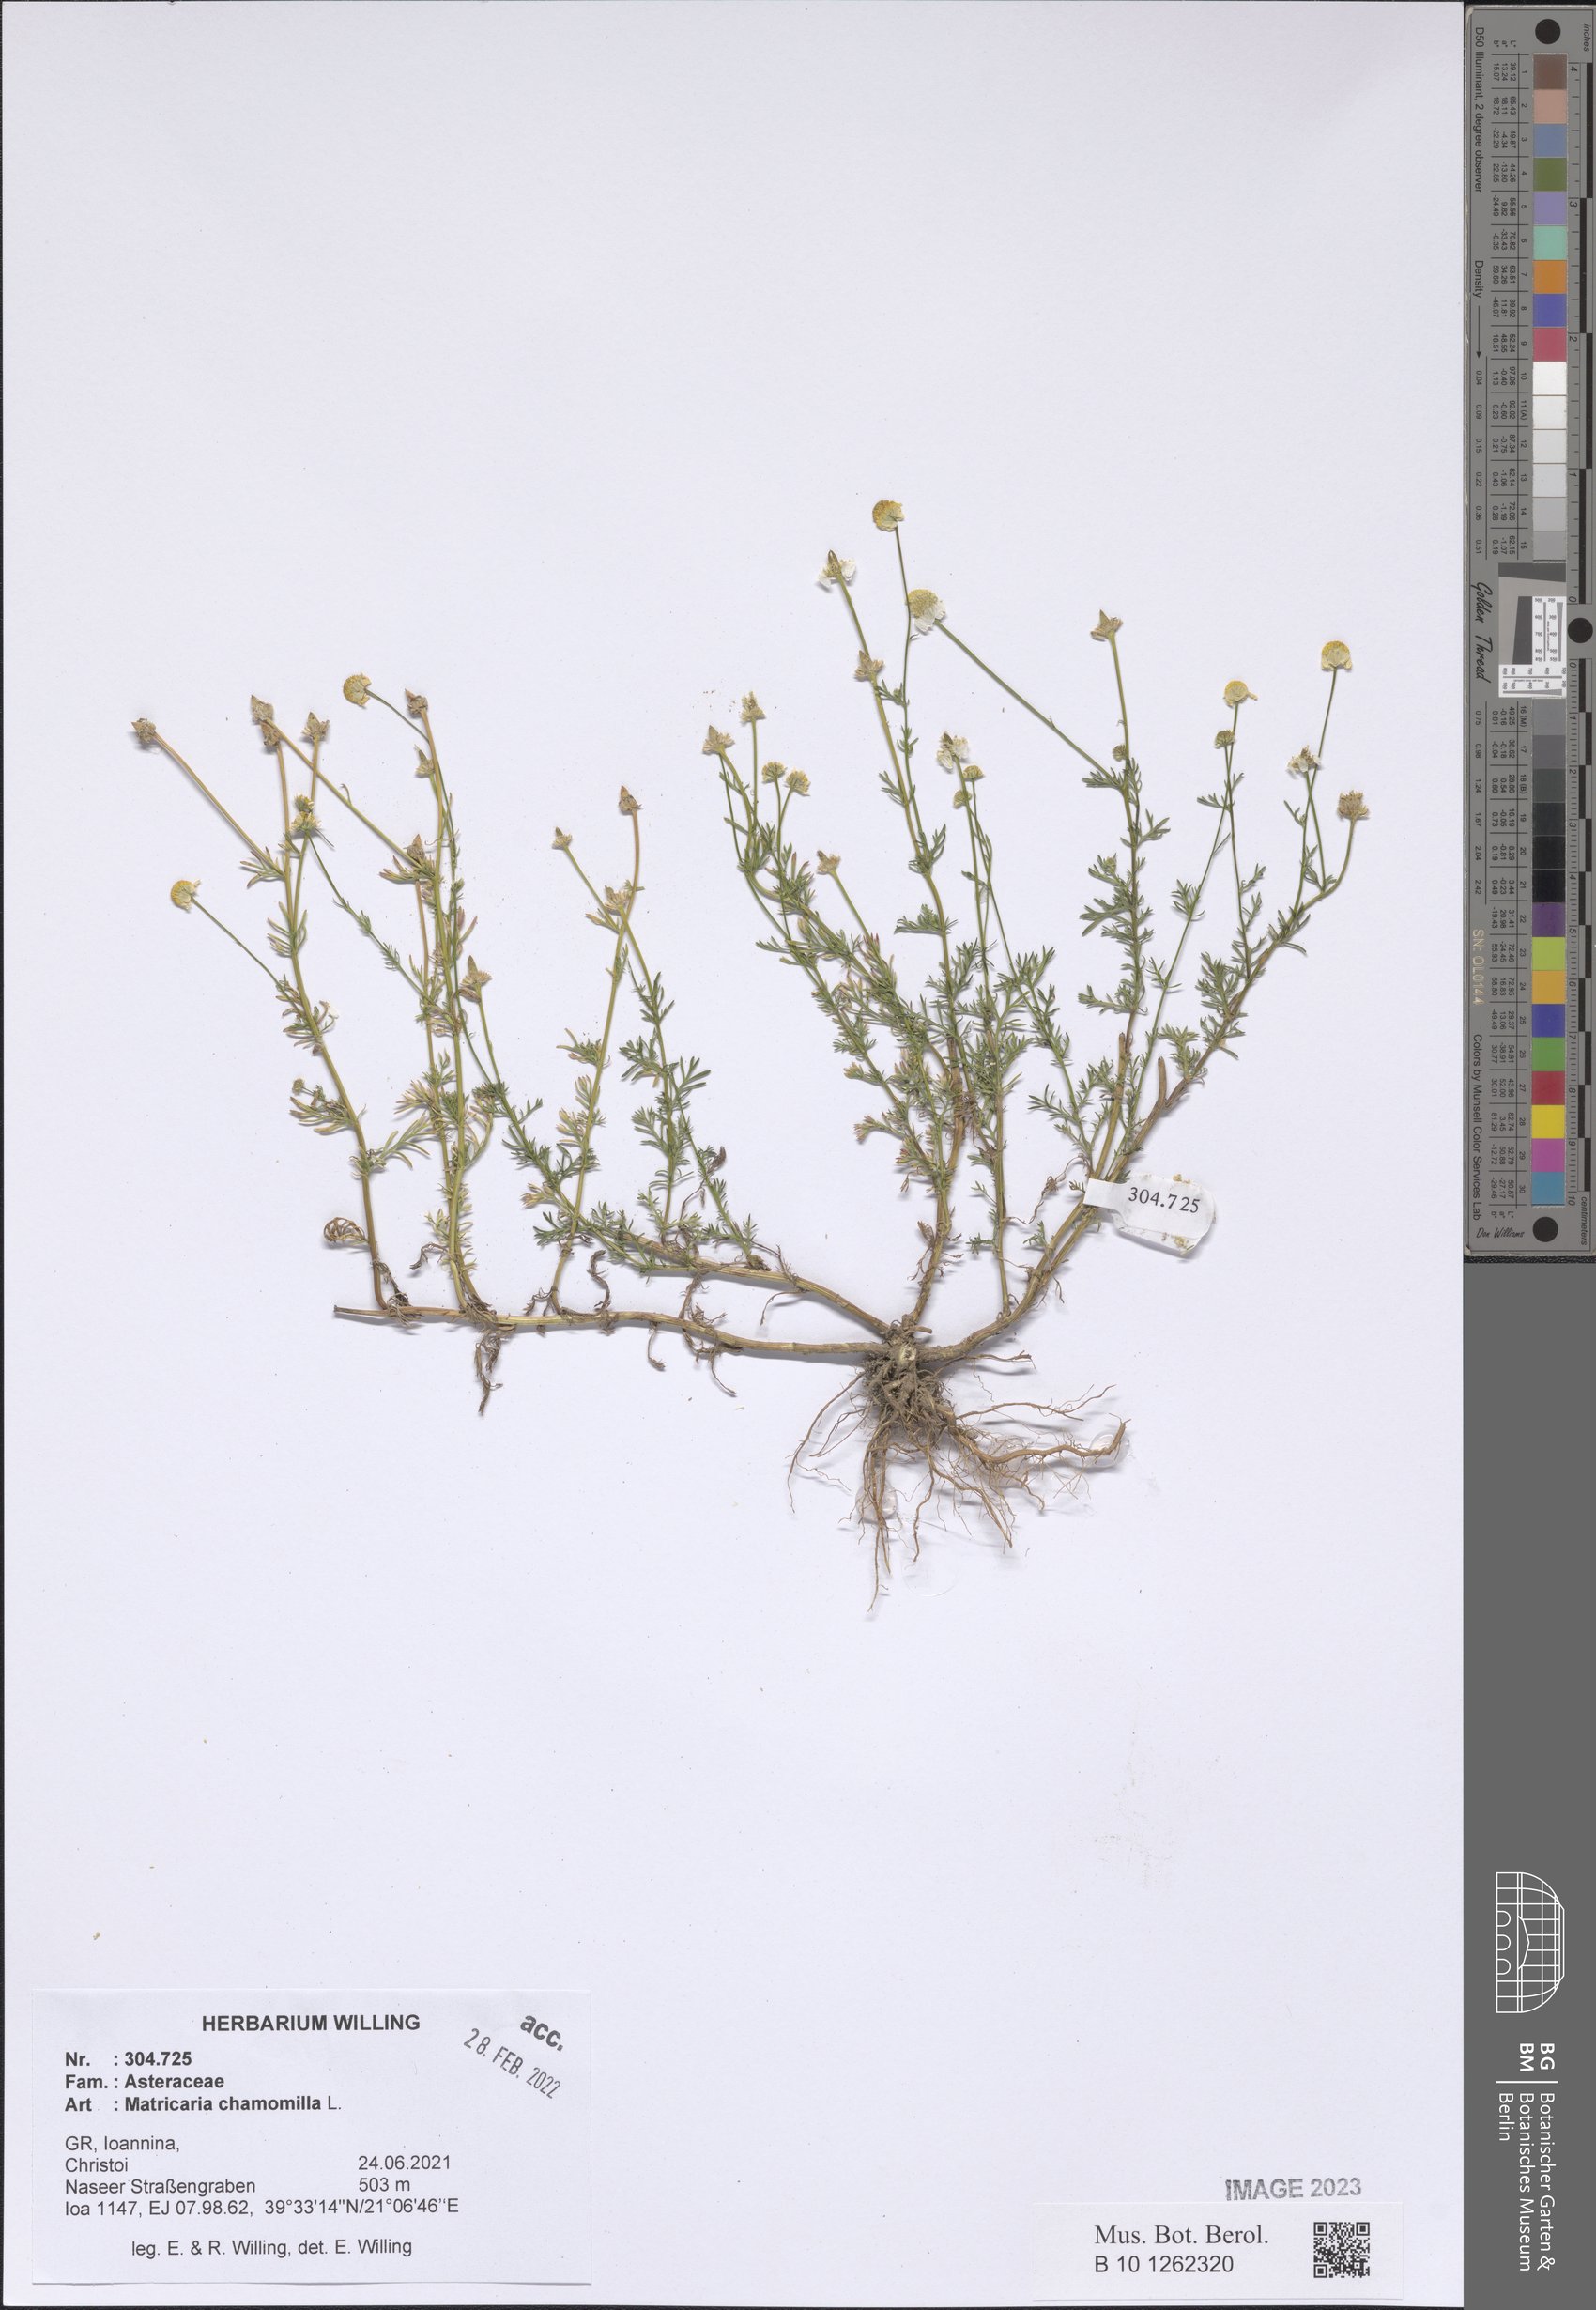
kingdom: Plantae
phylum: Tracheophyta
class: Magnoliopsida
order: Asterales
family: Asteraceae
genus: Matricaria
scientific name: Matricaria chamomilla
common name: Scented mayweed
